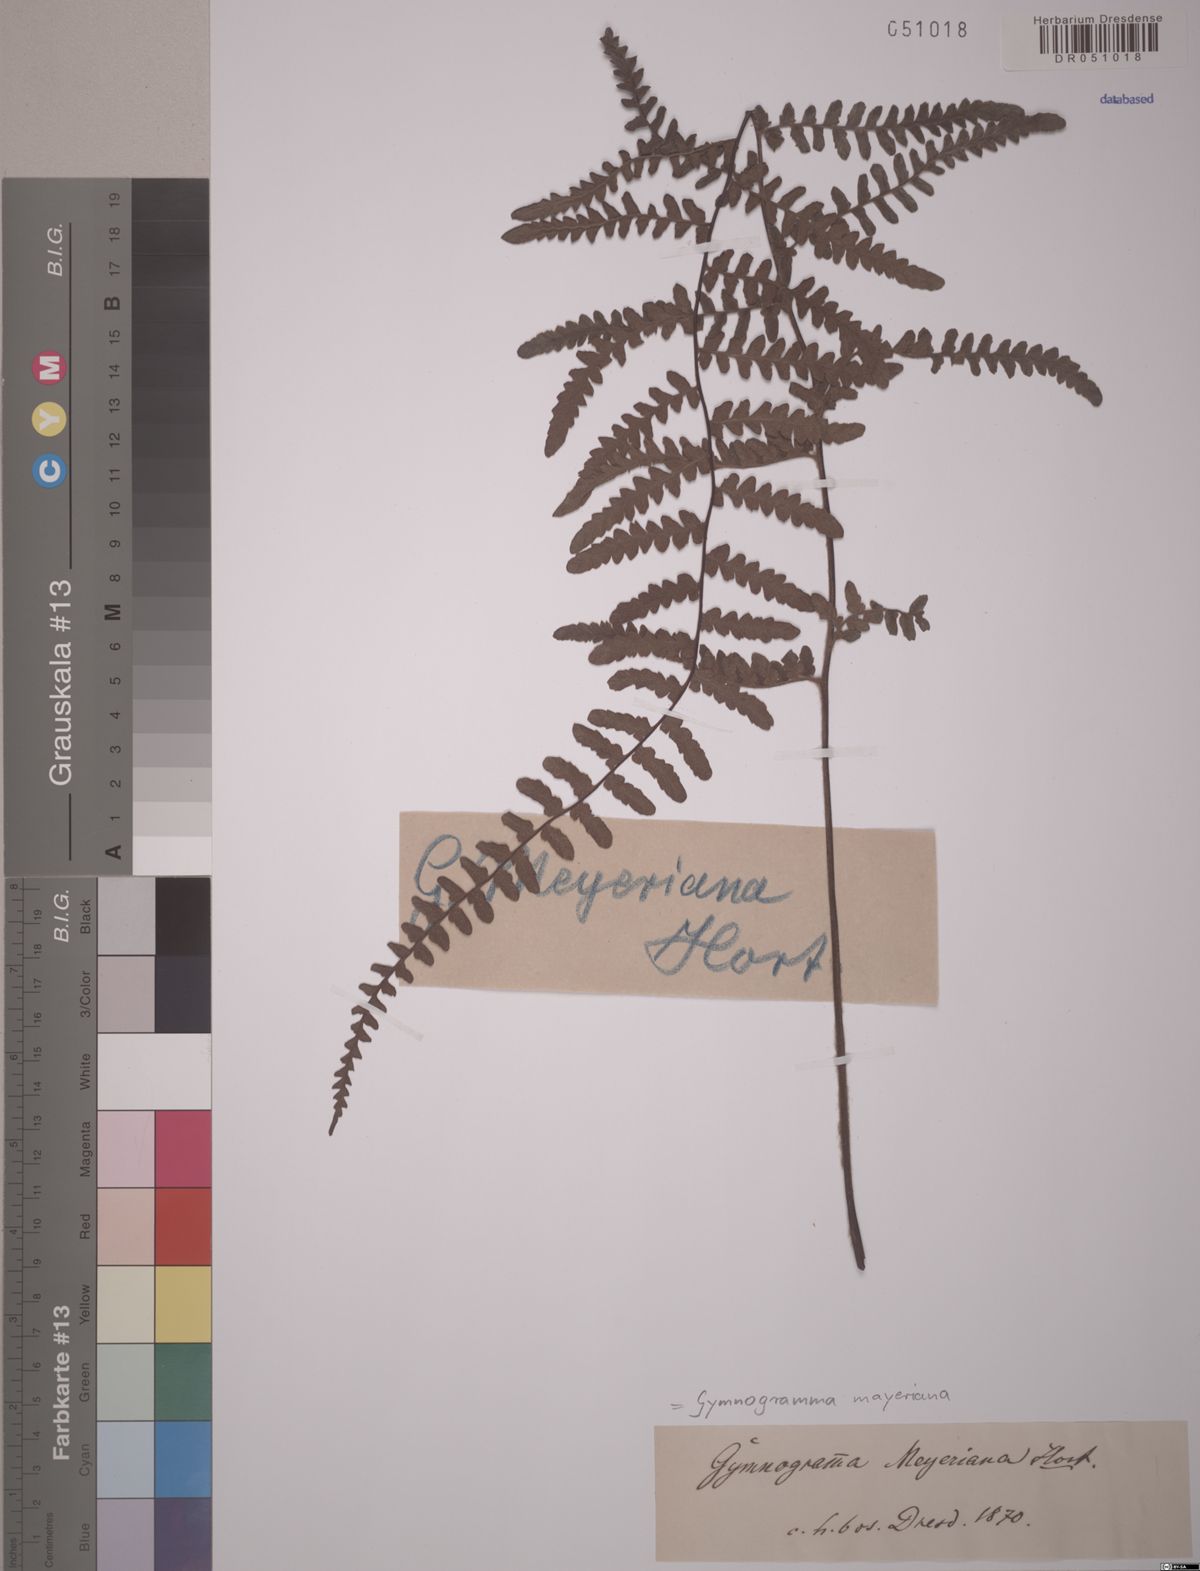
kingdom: Plantae
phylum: Tracheophyta
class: Polypodiopsida
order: Polypodiales
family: Pteridaceae
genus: Pityrogramma
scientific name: Pityrogramma ferruginea
